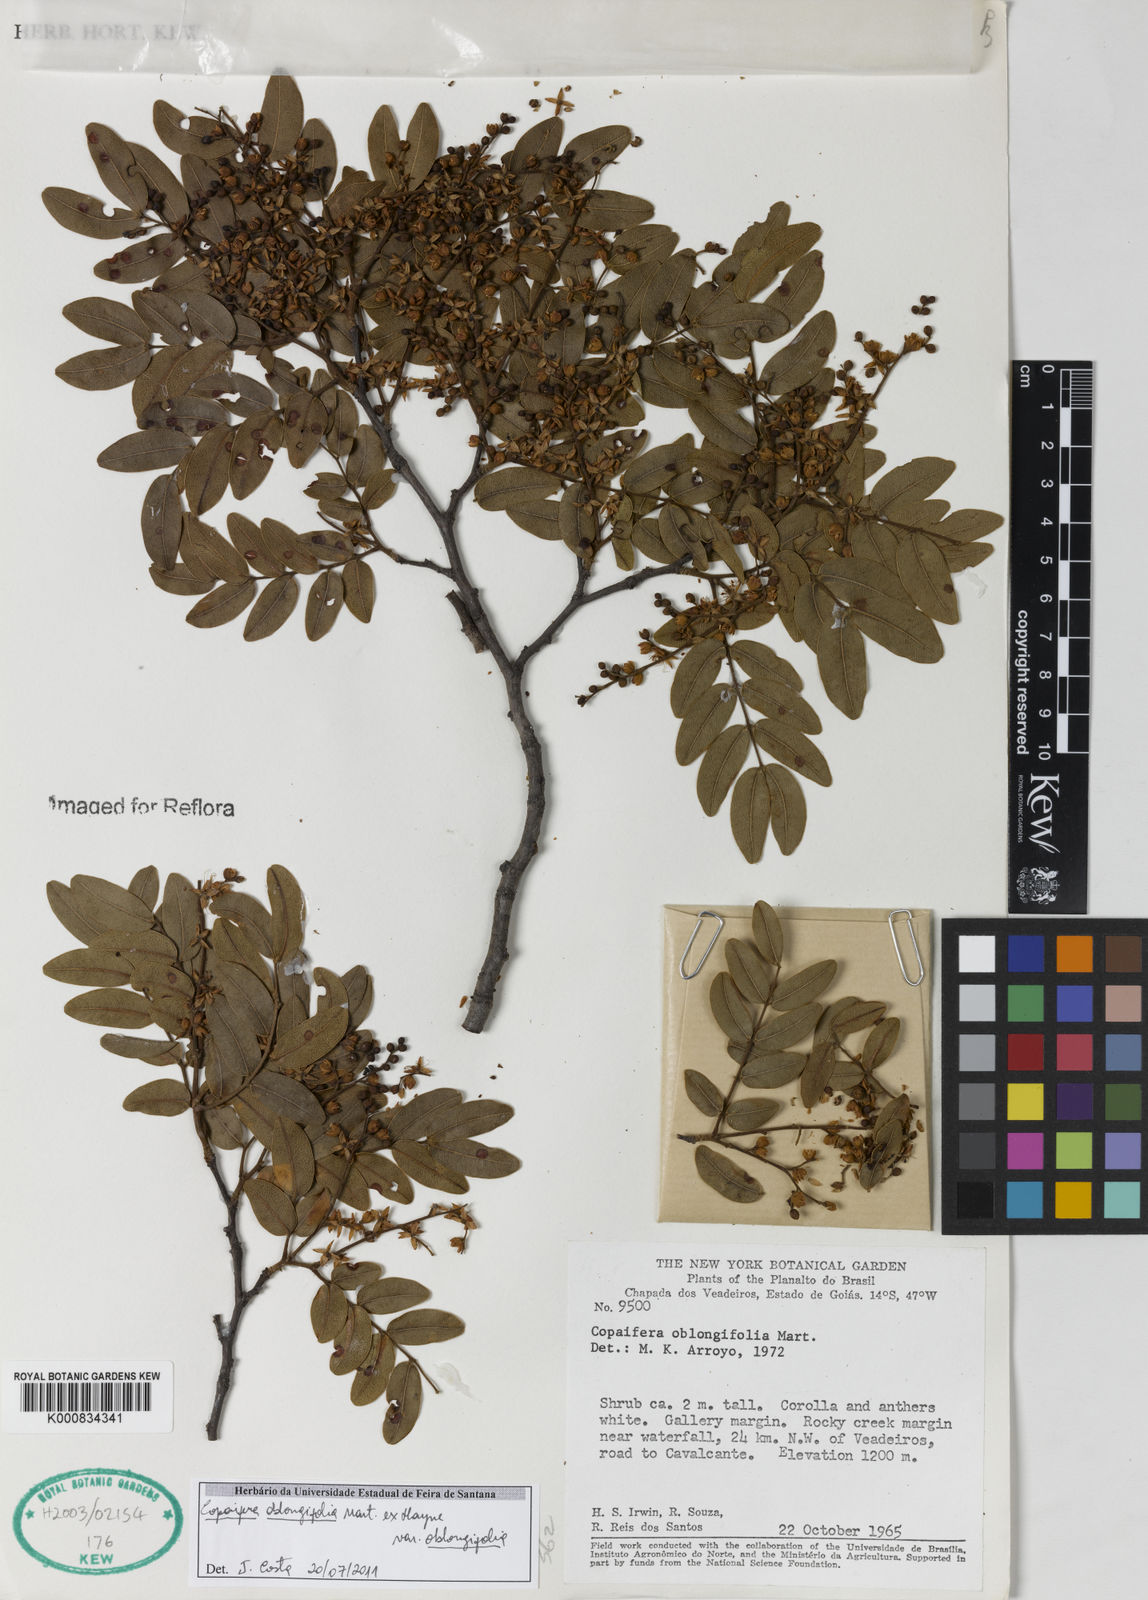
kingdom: Plantae
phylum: Tracheophyta
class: Magnoliopsida
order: Fabales
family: Fabaceae
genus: Copaifera
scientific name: Copaifera
